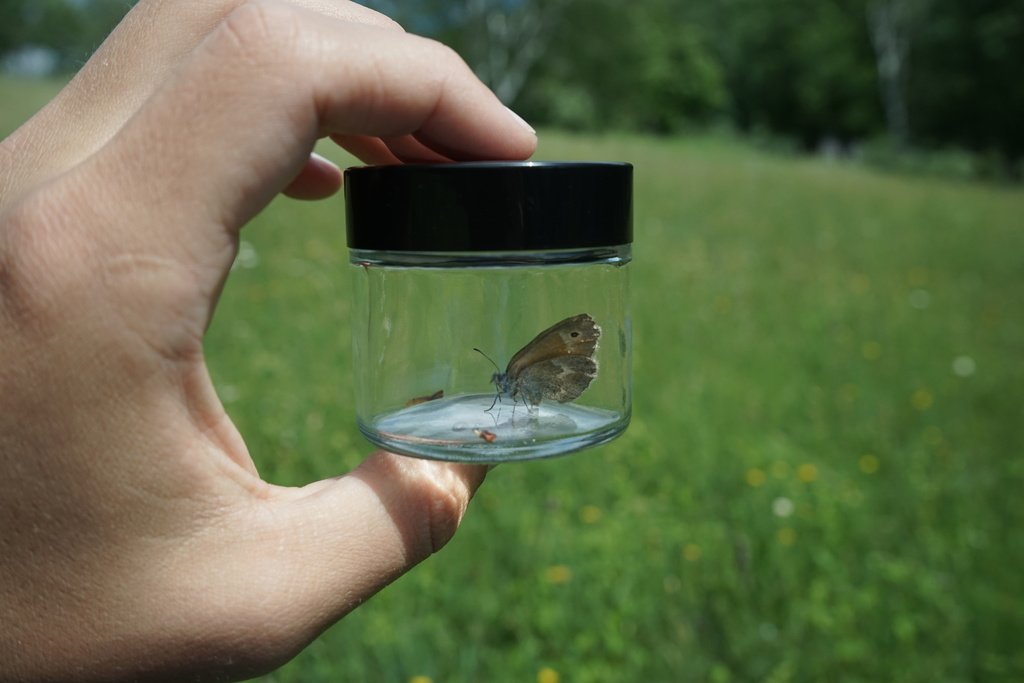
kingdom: Animalia
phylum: Arthropoda
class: Insecta
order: Lepidoptera
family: Nymphalidae
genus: Coenonympha
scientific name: Coenonympha tullia
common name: Large Heath
